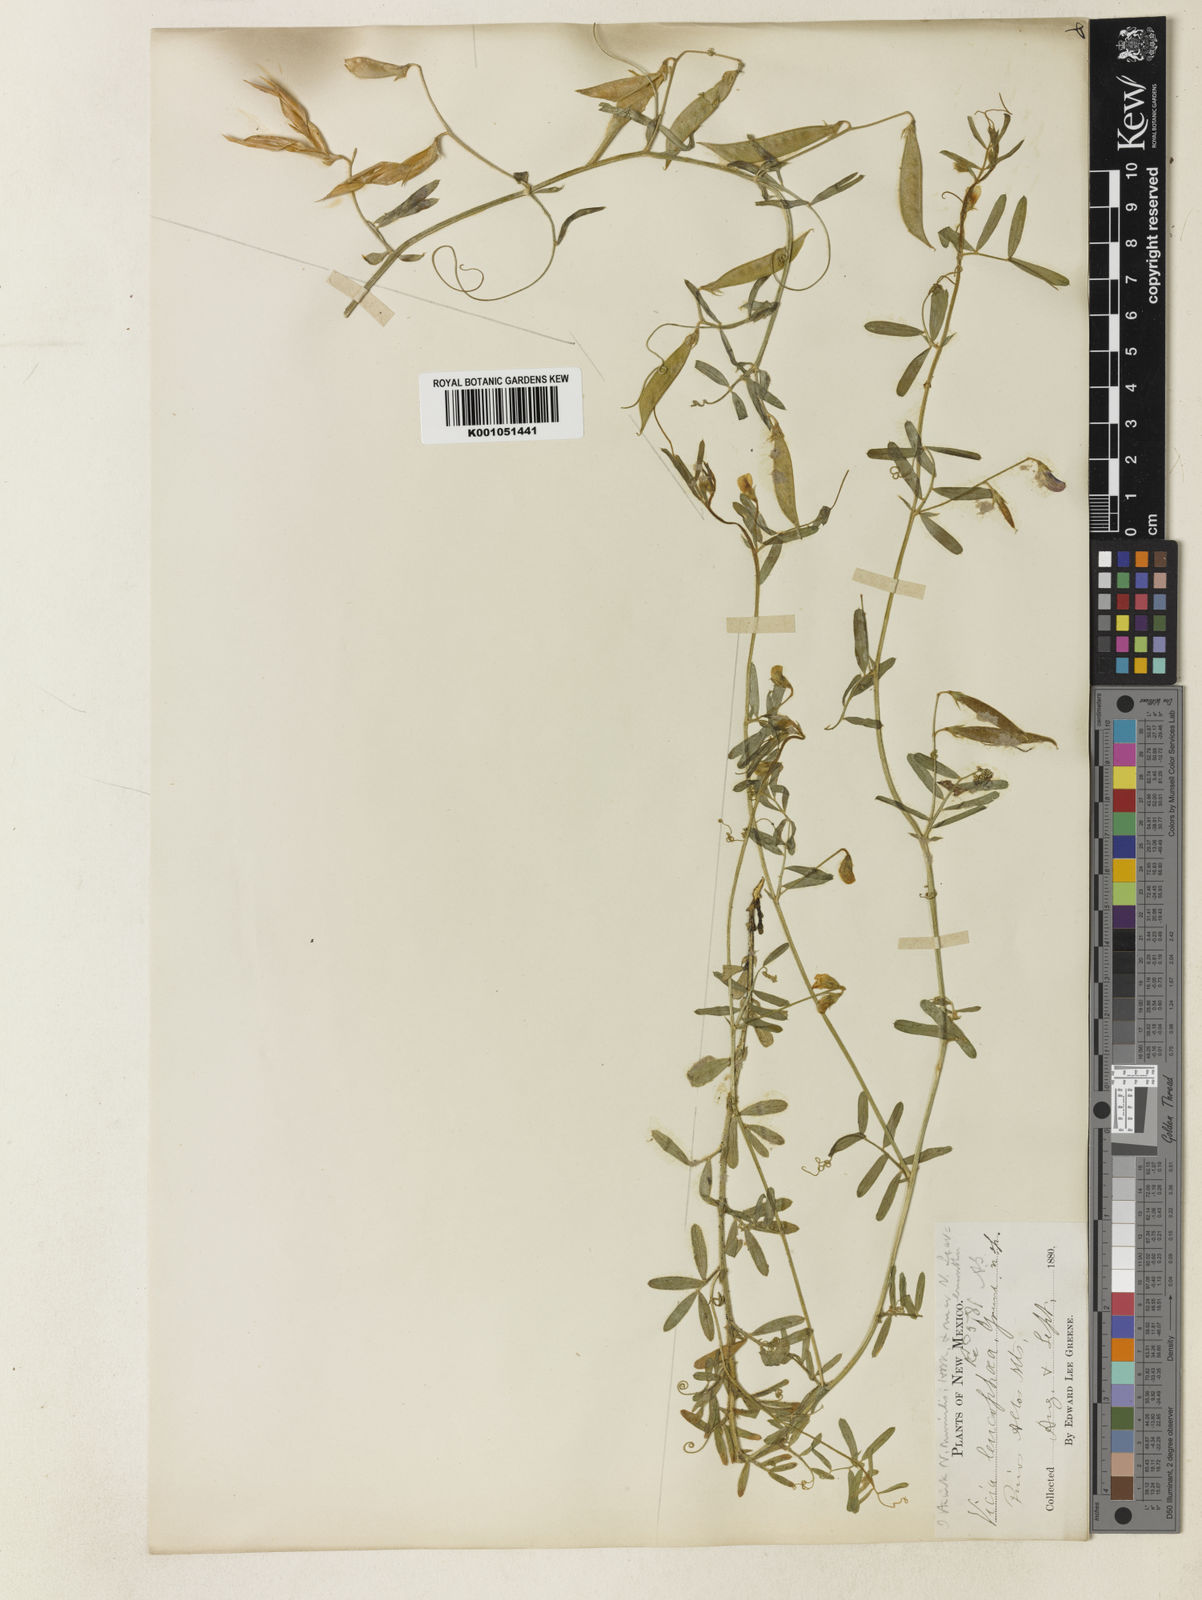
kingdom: Plantae
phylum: Tracheophyta
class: Magnoliopsida
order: Fabales
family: Fabaceae
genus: Vicia
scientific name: Vicia leucophaea
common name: Mogollon vetch
